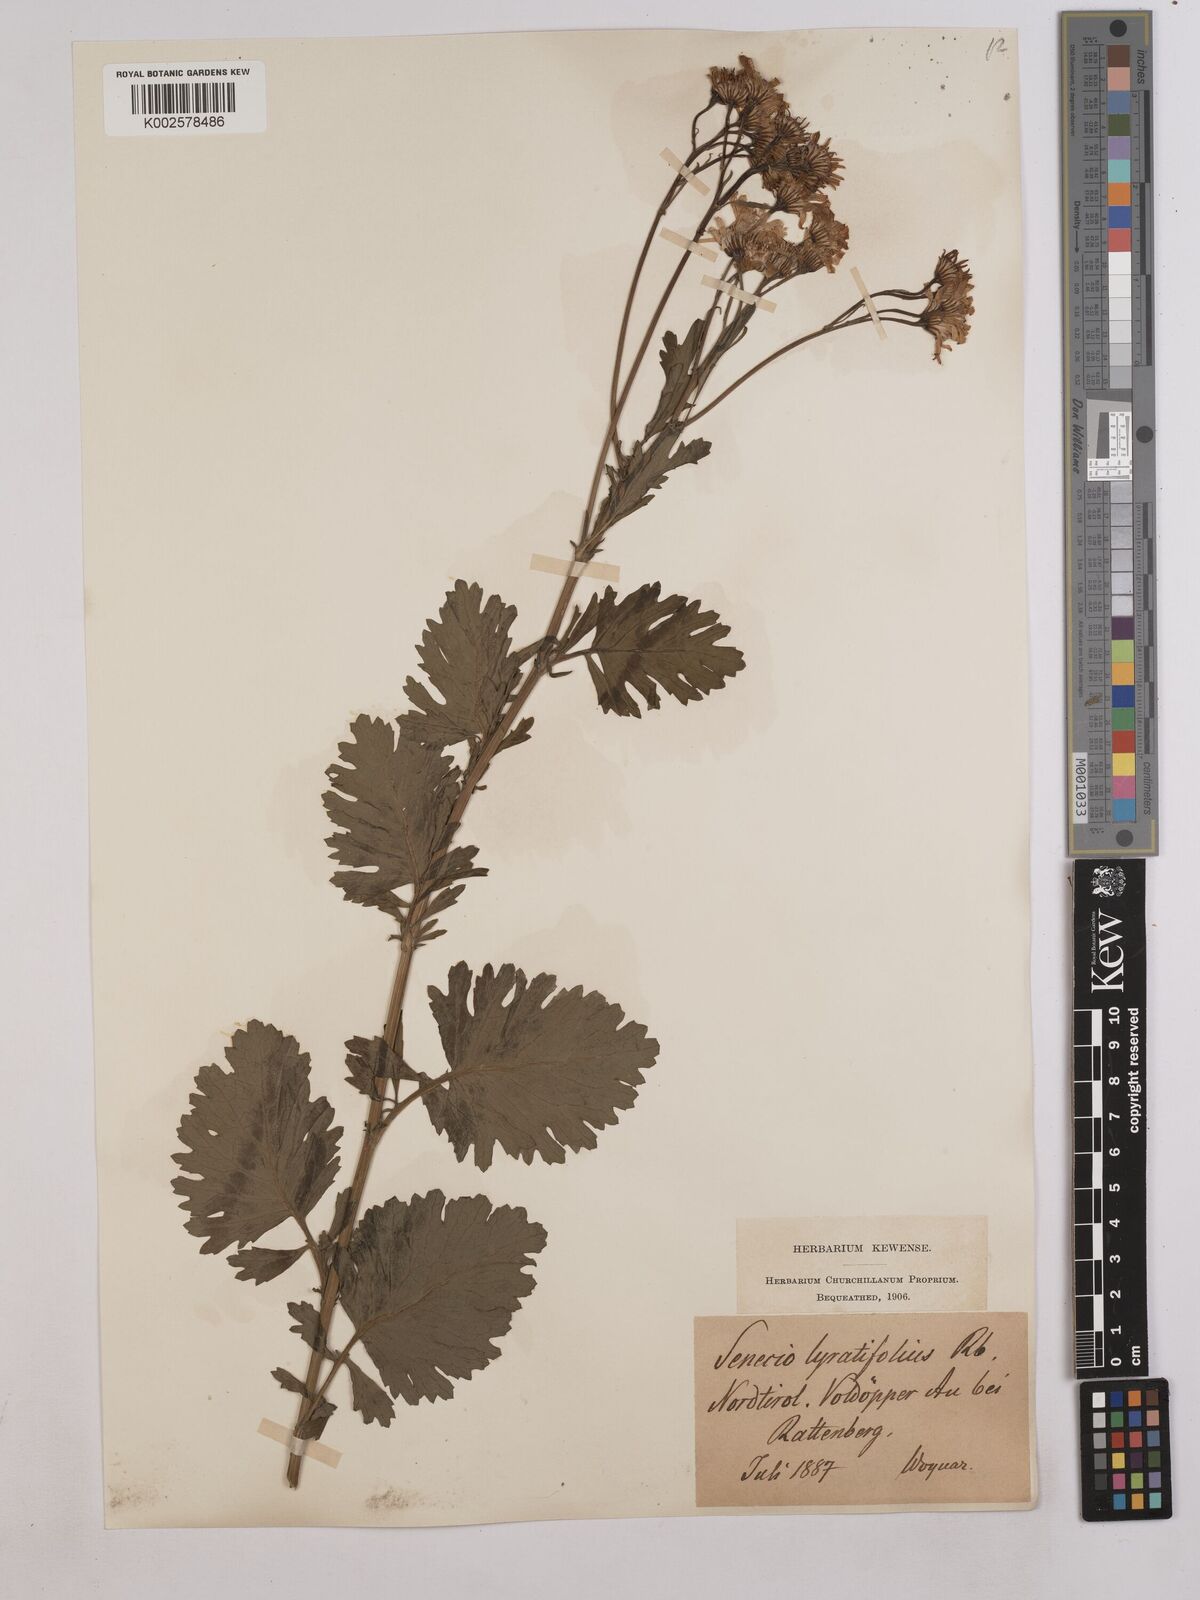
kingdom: Plantae
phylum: Tracheophyta
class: Magnoliopsida
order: Asterales
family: Asteraceae
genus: Jacobaea
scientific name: Jacobaea vulgaris
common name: Stinking willie
